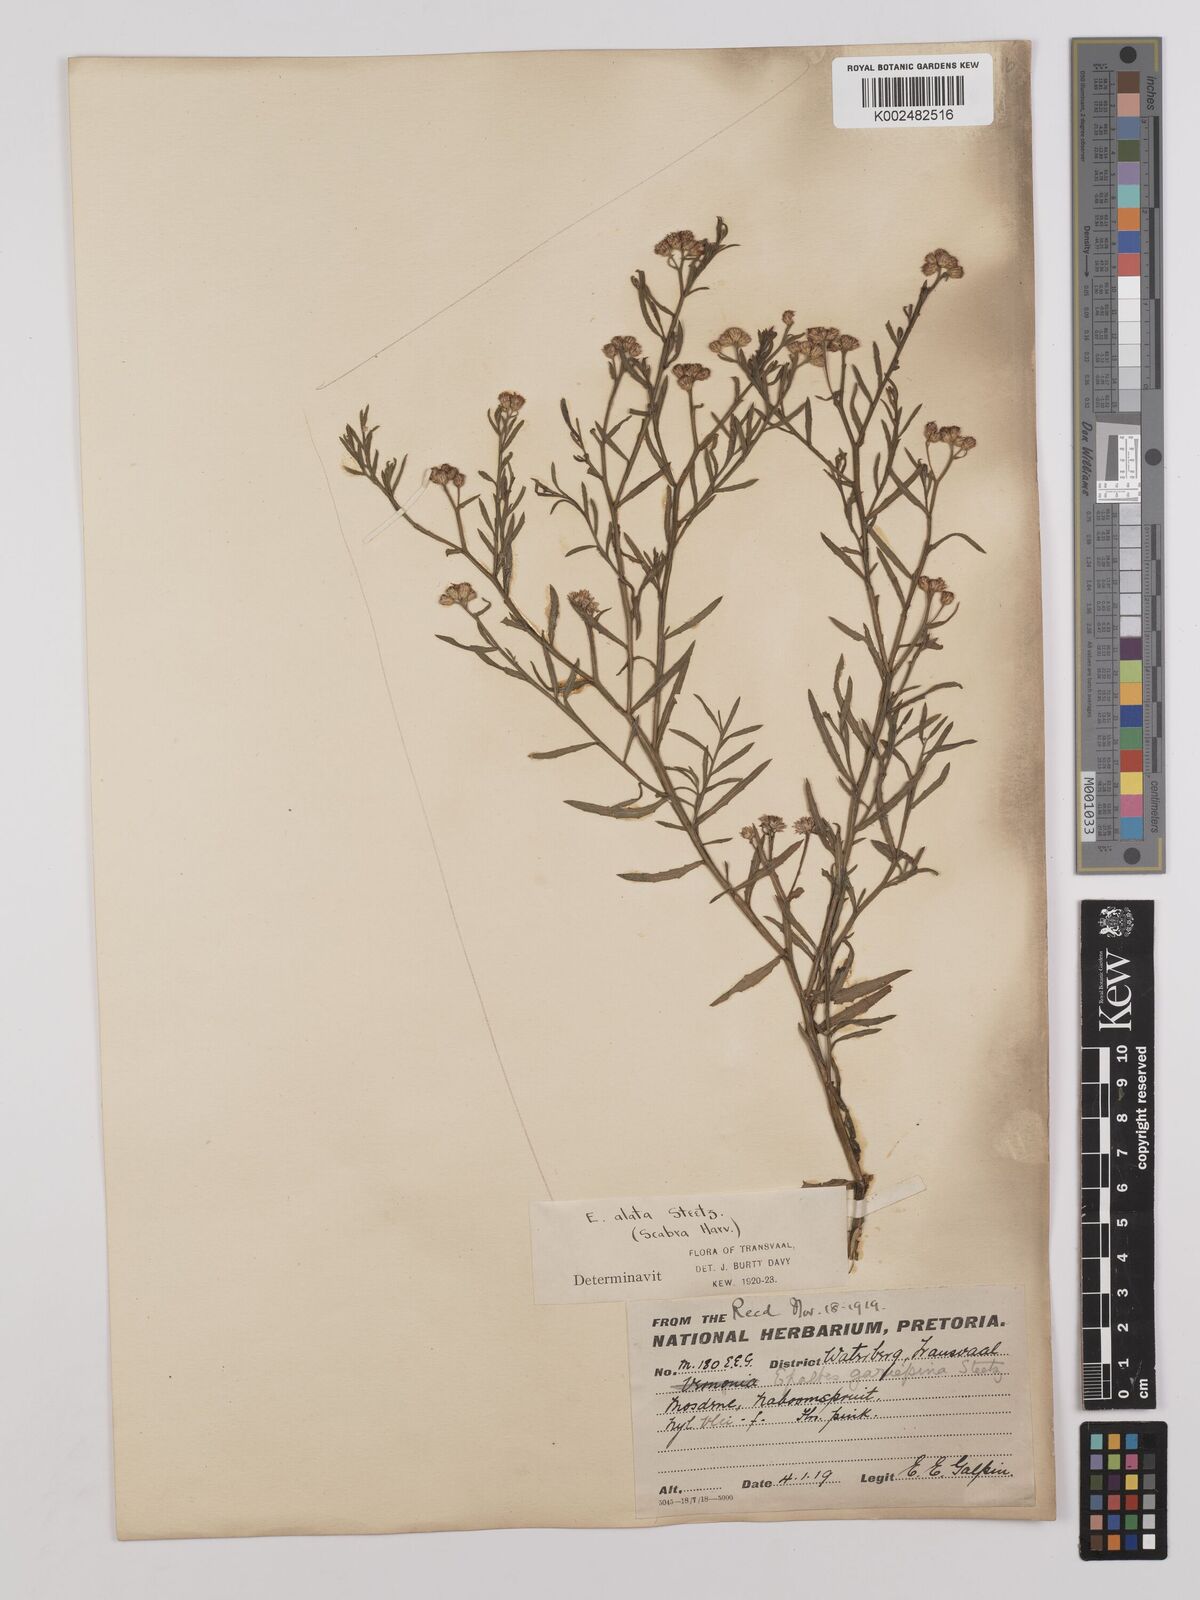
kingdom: Plantae
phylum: Tracheophyta
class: Magnoliopsida
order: Asterales
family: Asteraceae
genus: Litogyne
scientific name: Litogyne gariepina
